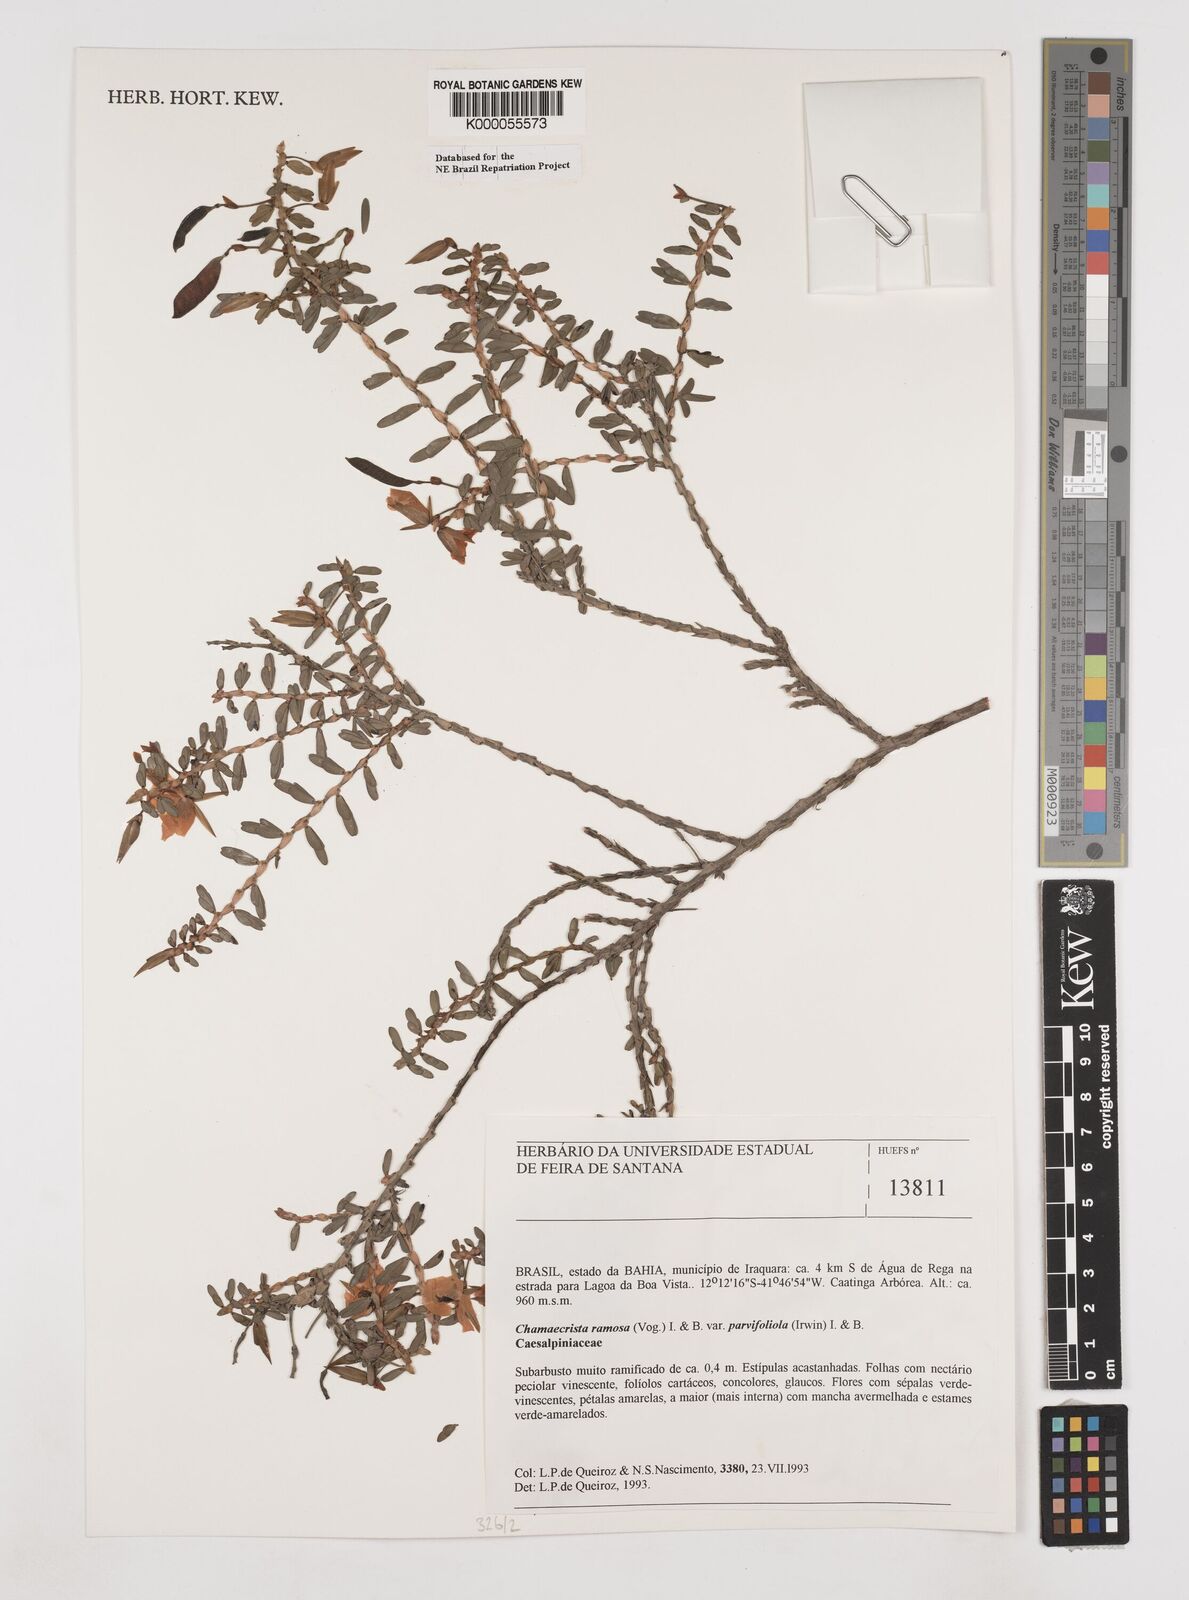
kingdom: Plantae
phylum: Tracheophyta
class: Magnoliopsida
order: Fabales
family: Fabaceae
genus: Chamaecrista
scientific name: Chamaecrista ramosa
